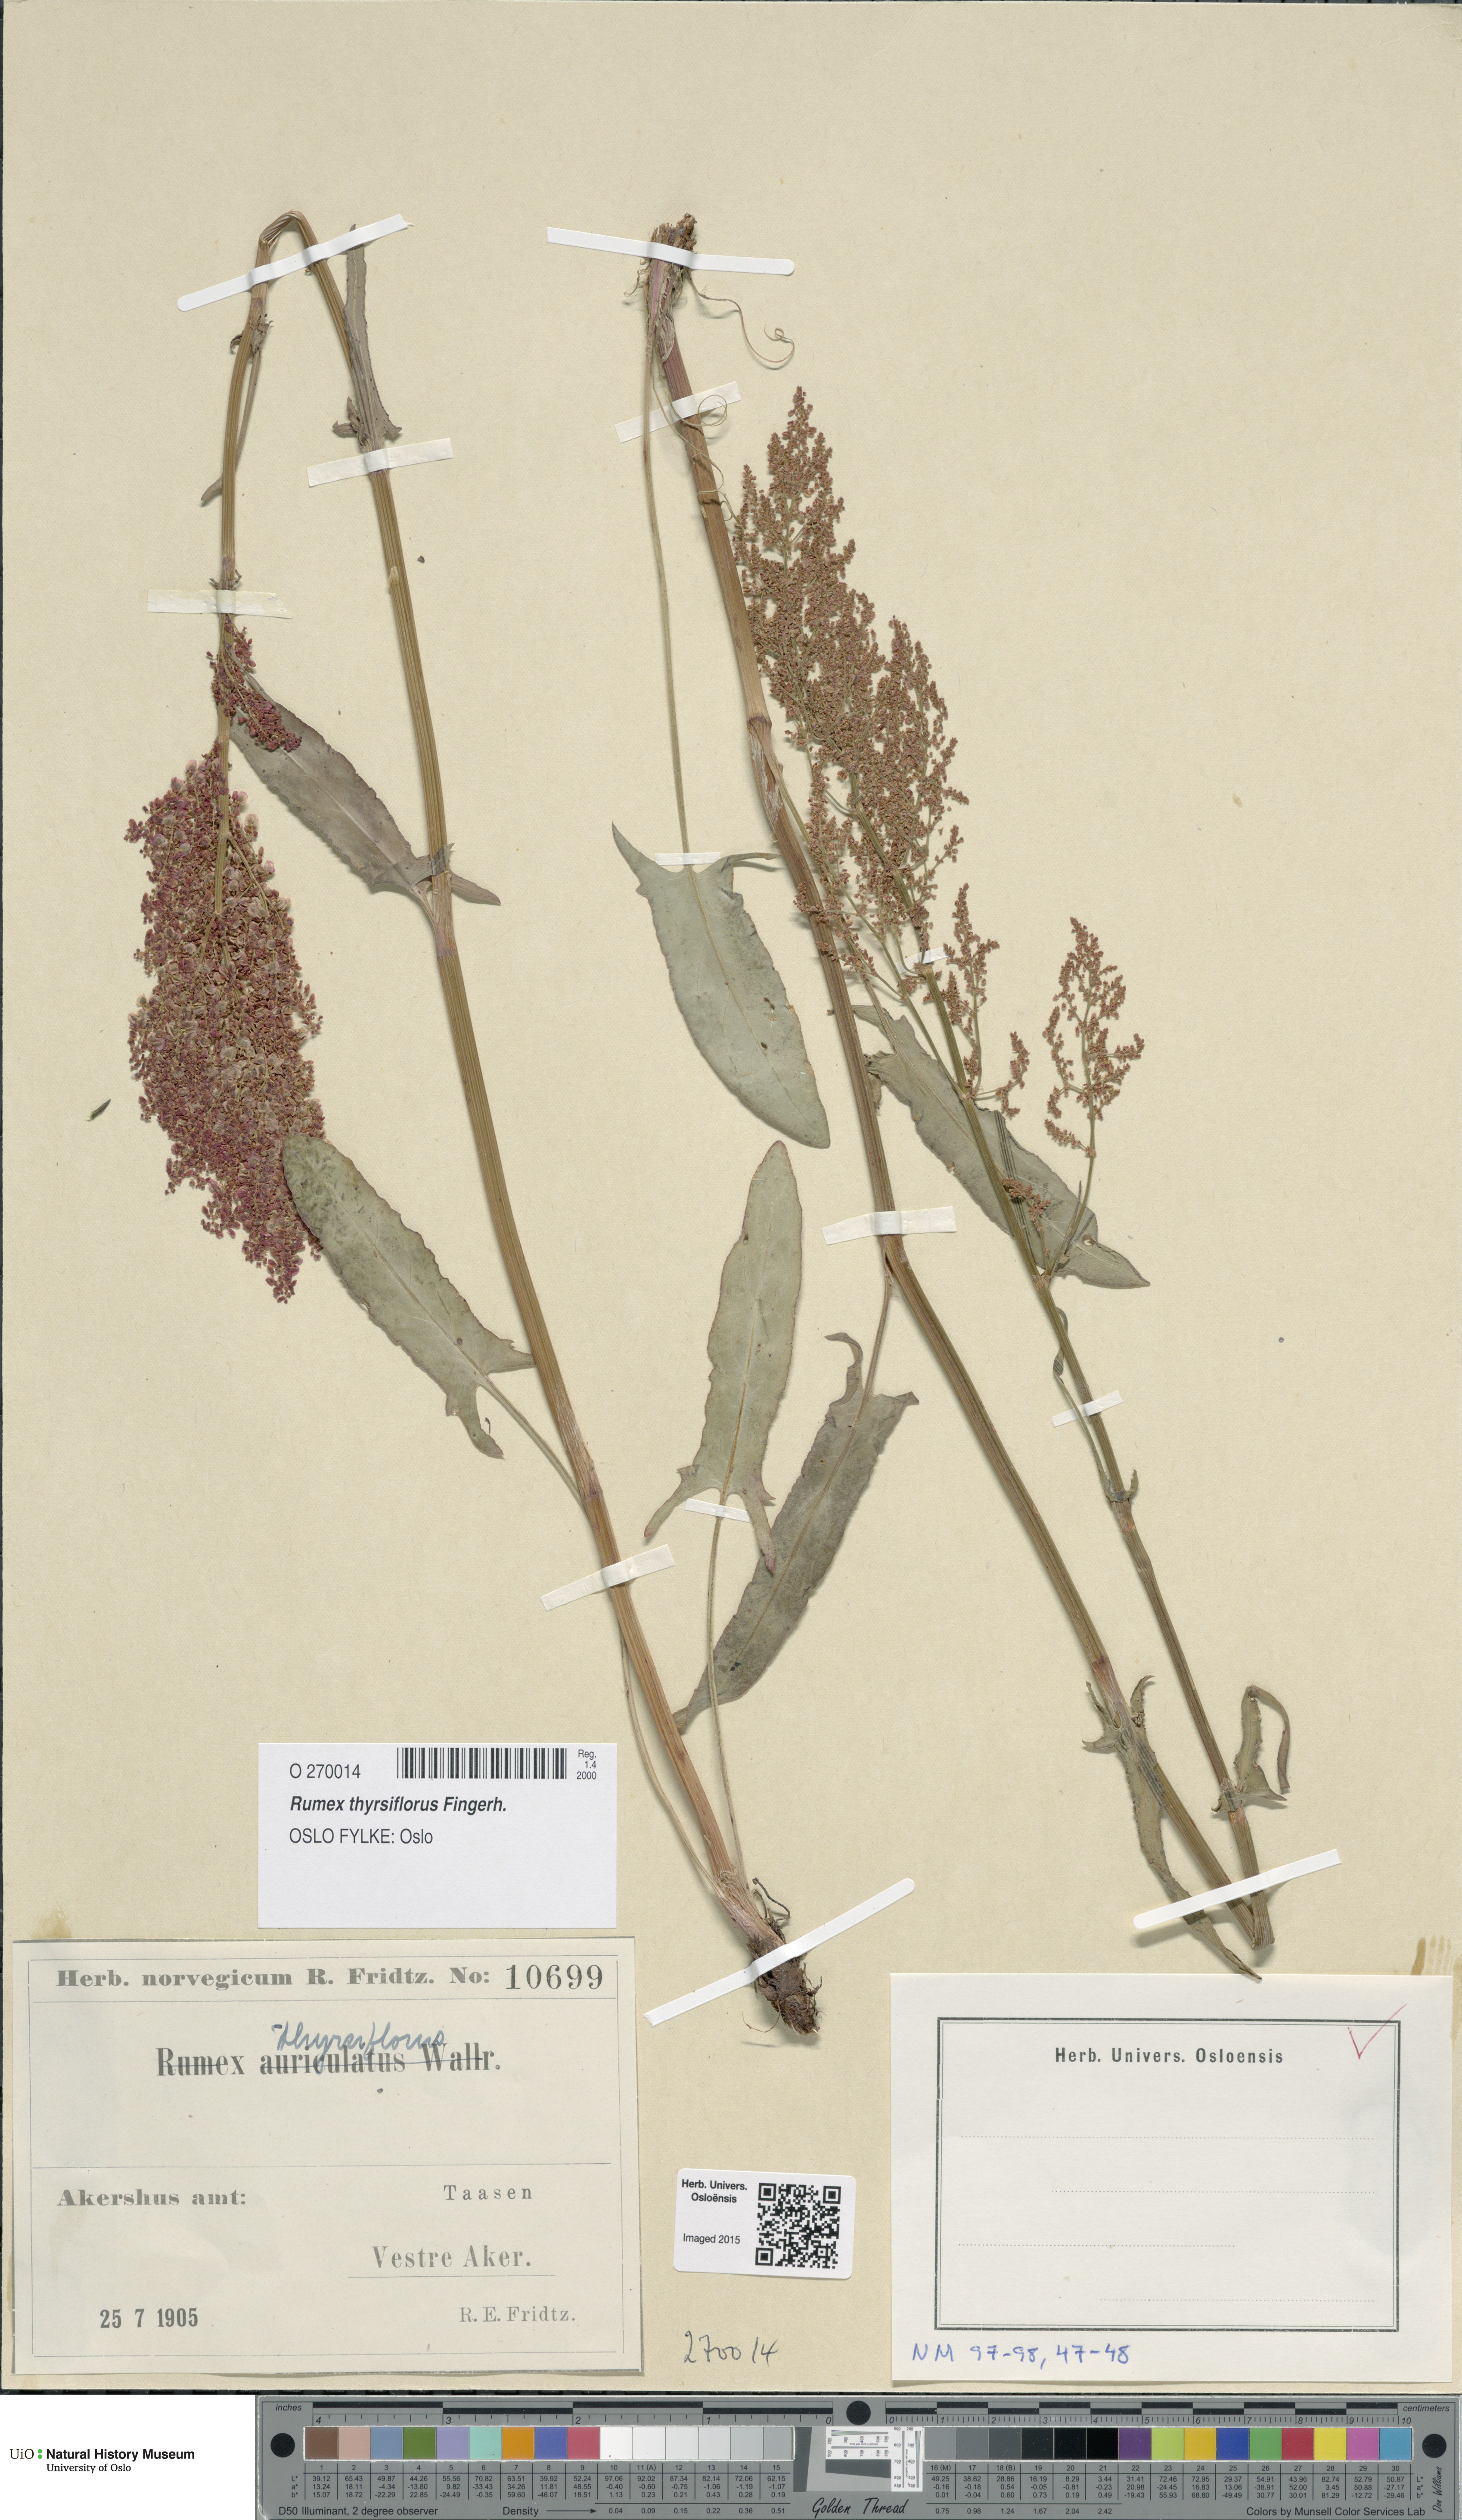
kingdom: Plantae
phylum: Tracheophyta
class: Magnoliopsida
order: Caryophyllales
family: Polygonaceae
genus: Rumex
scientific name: Rumex thyrsiflorus
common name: Garden sorrel
